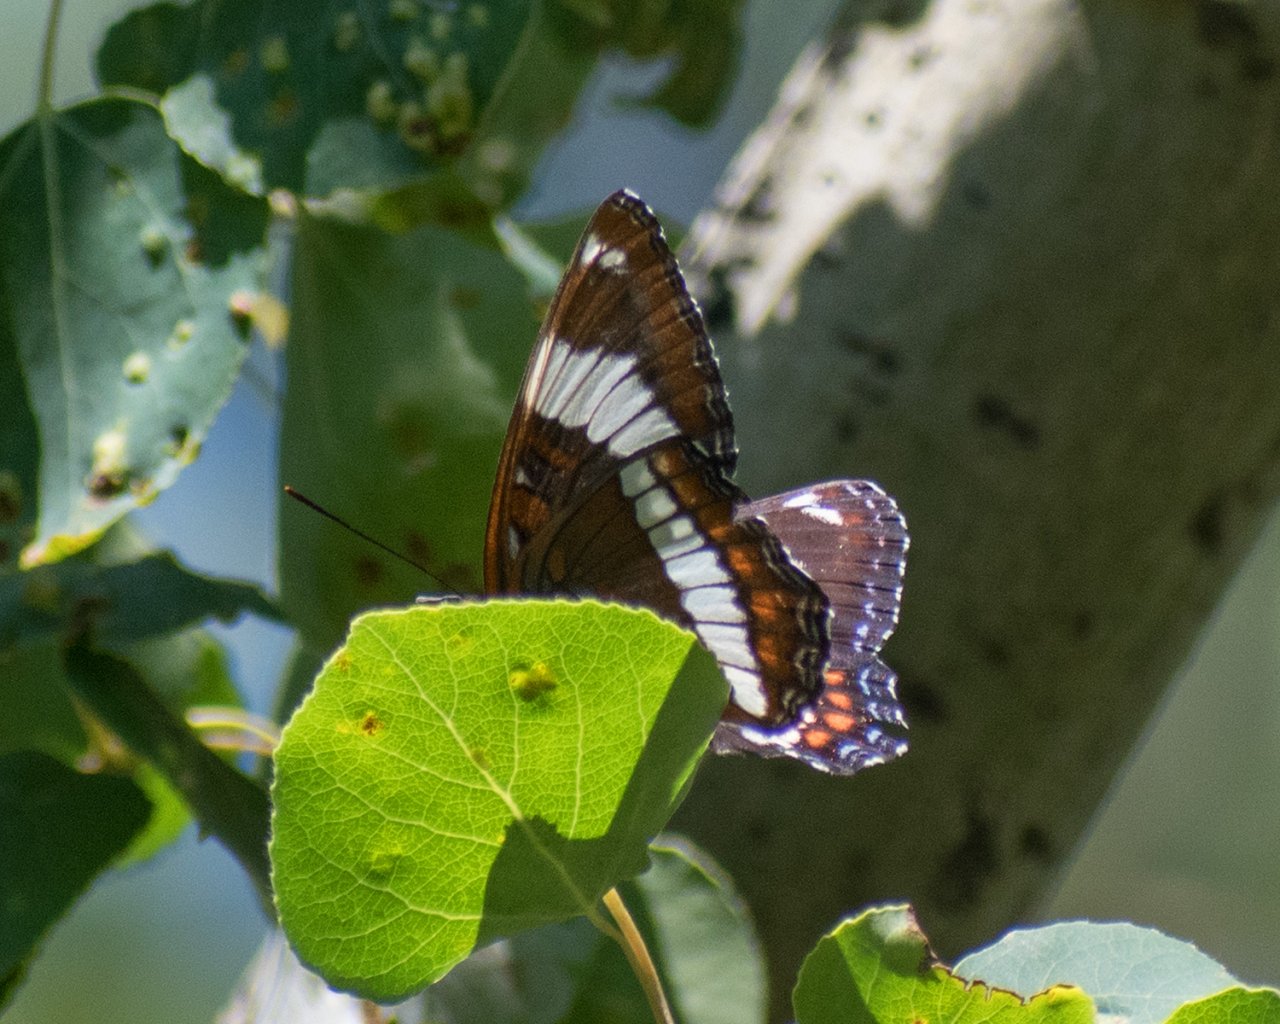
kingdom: Animalia
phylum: Arthropoda
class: Insecta
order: Lepidoptera
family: Nymphalidae
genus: Limenitis
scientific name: Limenitis arthemis
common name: Red-spotted Admiral
